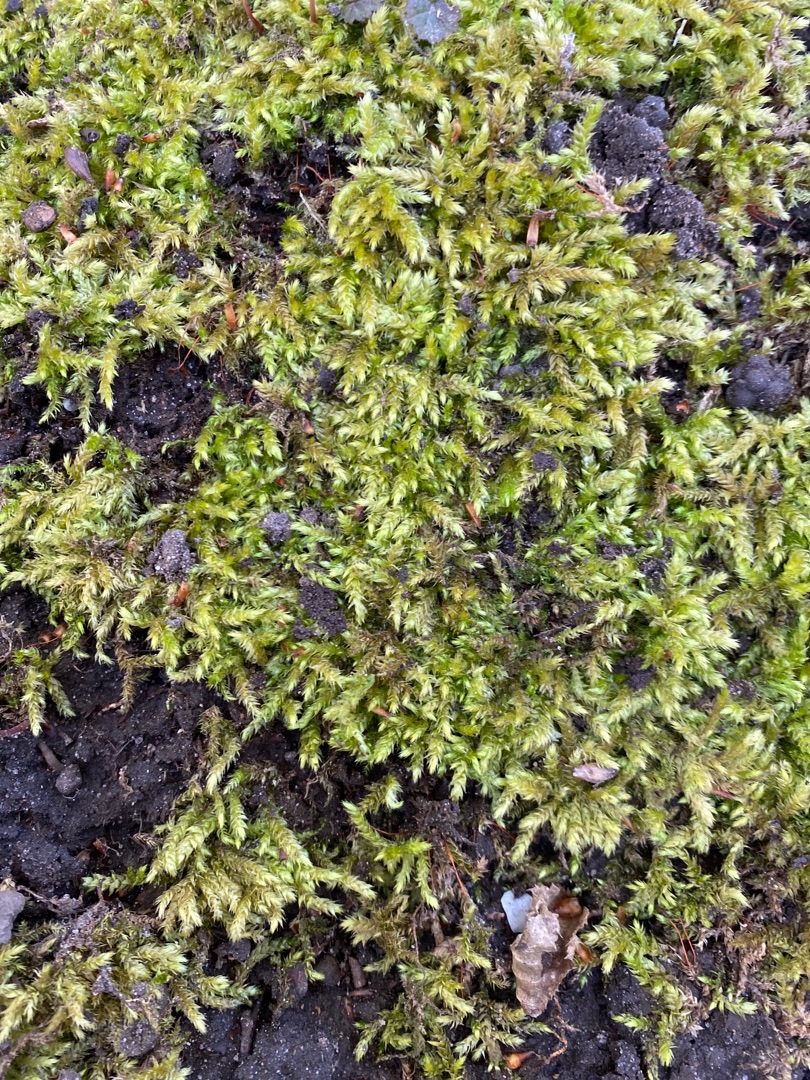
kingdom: Plantae
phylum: Bryophyta
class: Bryopsida
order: Hypnales
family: Brachytheciaceae
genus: Brachythecium
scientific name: Brachythecium rutabulum
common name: Almindelig kortkapsel
